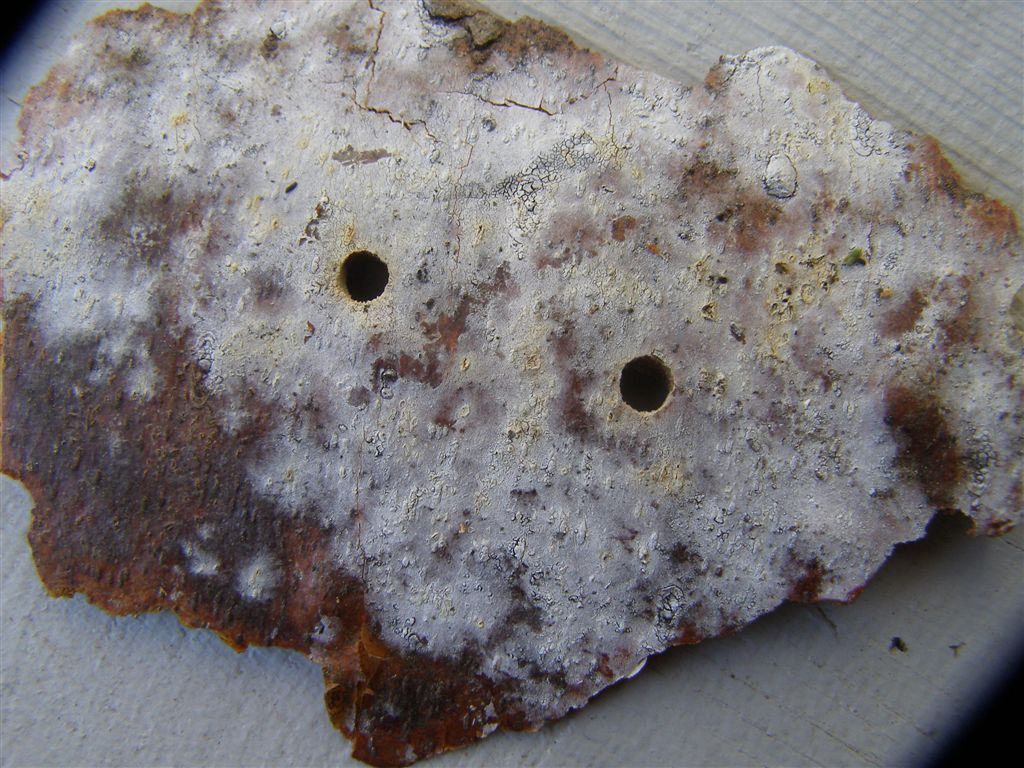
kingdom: Fungi
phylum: Basidiomycota
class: Agaricomycetes
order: Cantharellales
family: Hydnaceae
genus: Sistotrema
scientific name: Sistotrema brinkmannii
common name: bønnesporet kroneskorpe
